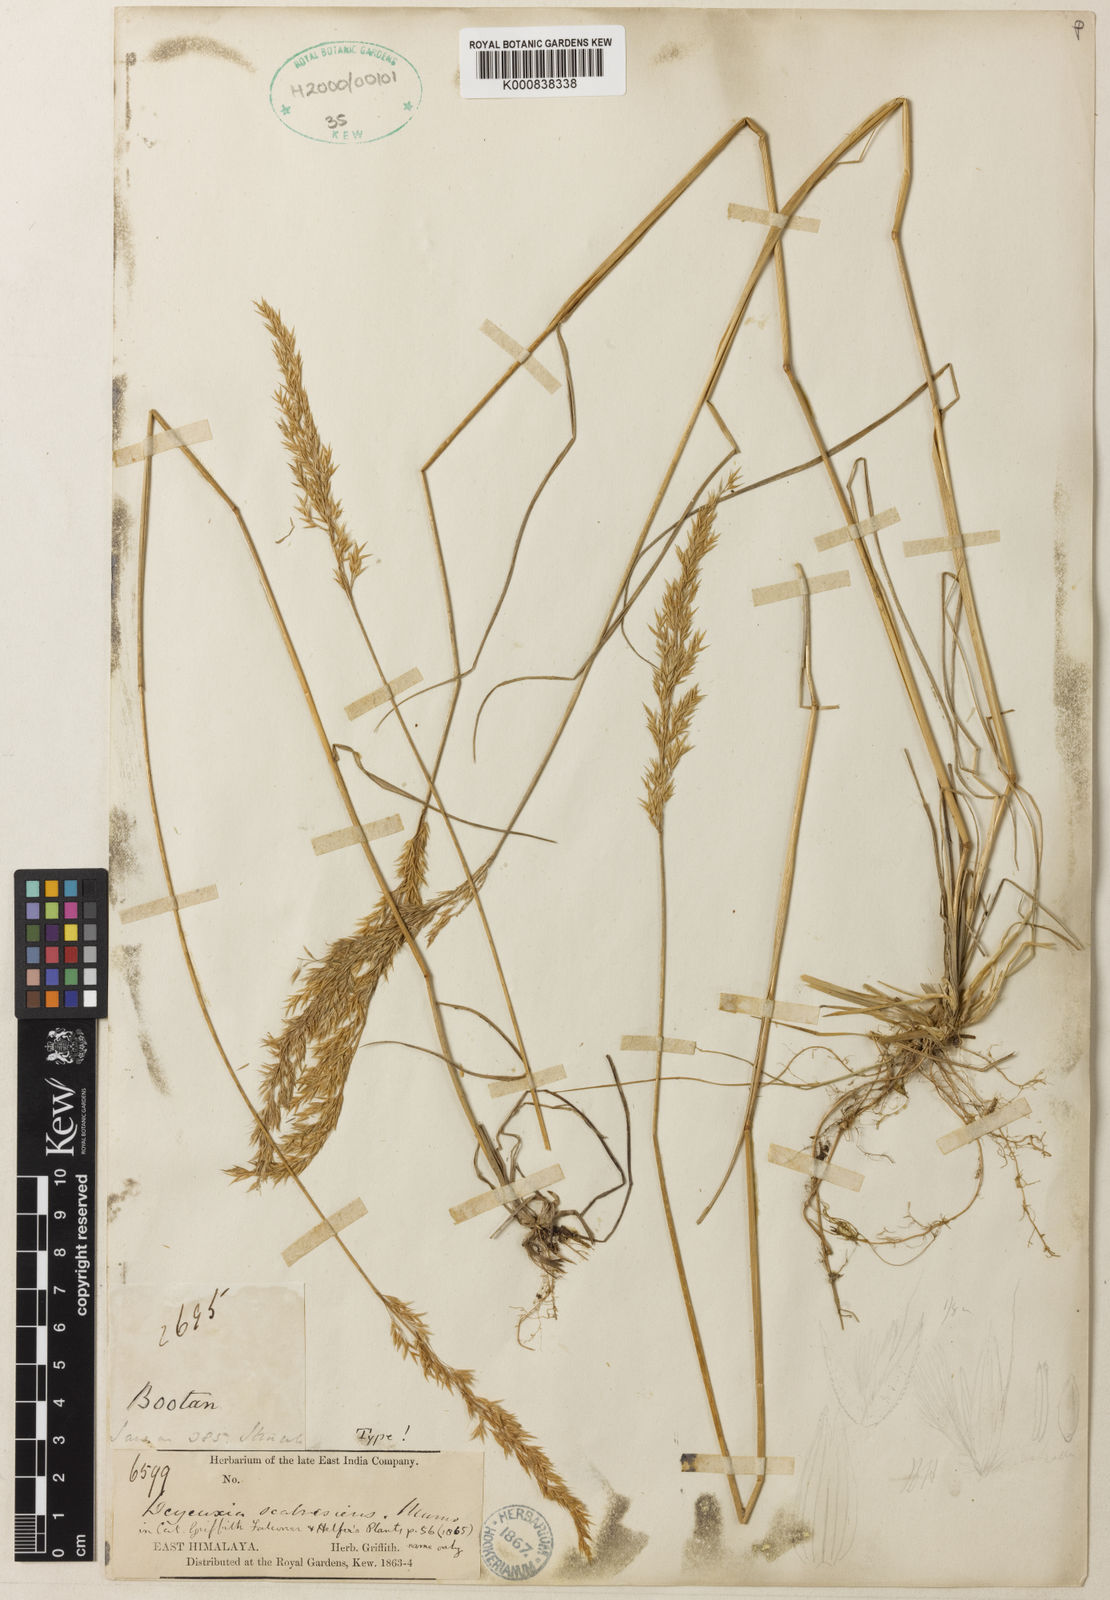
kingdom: Plantae
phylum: Tracheophyta
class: Liliopsida
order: Poales
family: Poaceae
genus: Calamagrostis
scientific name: Calamagrostis scabrescens
